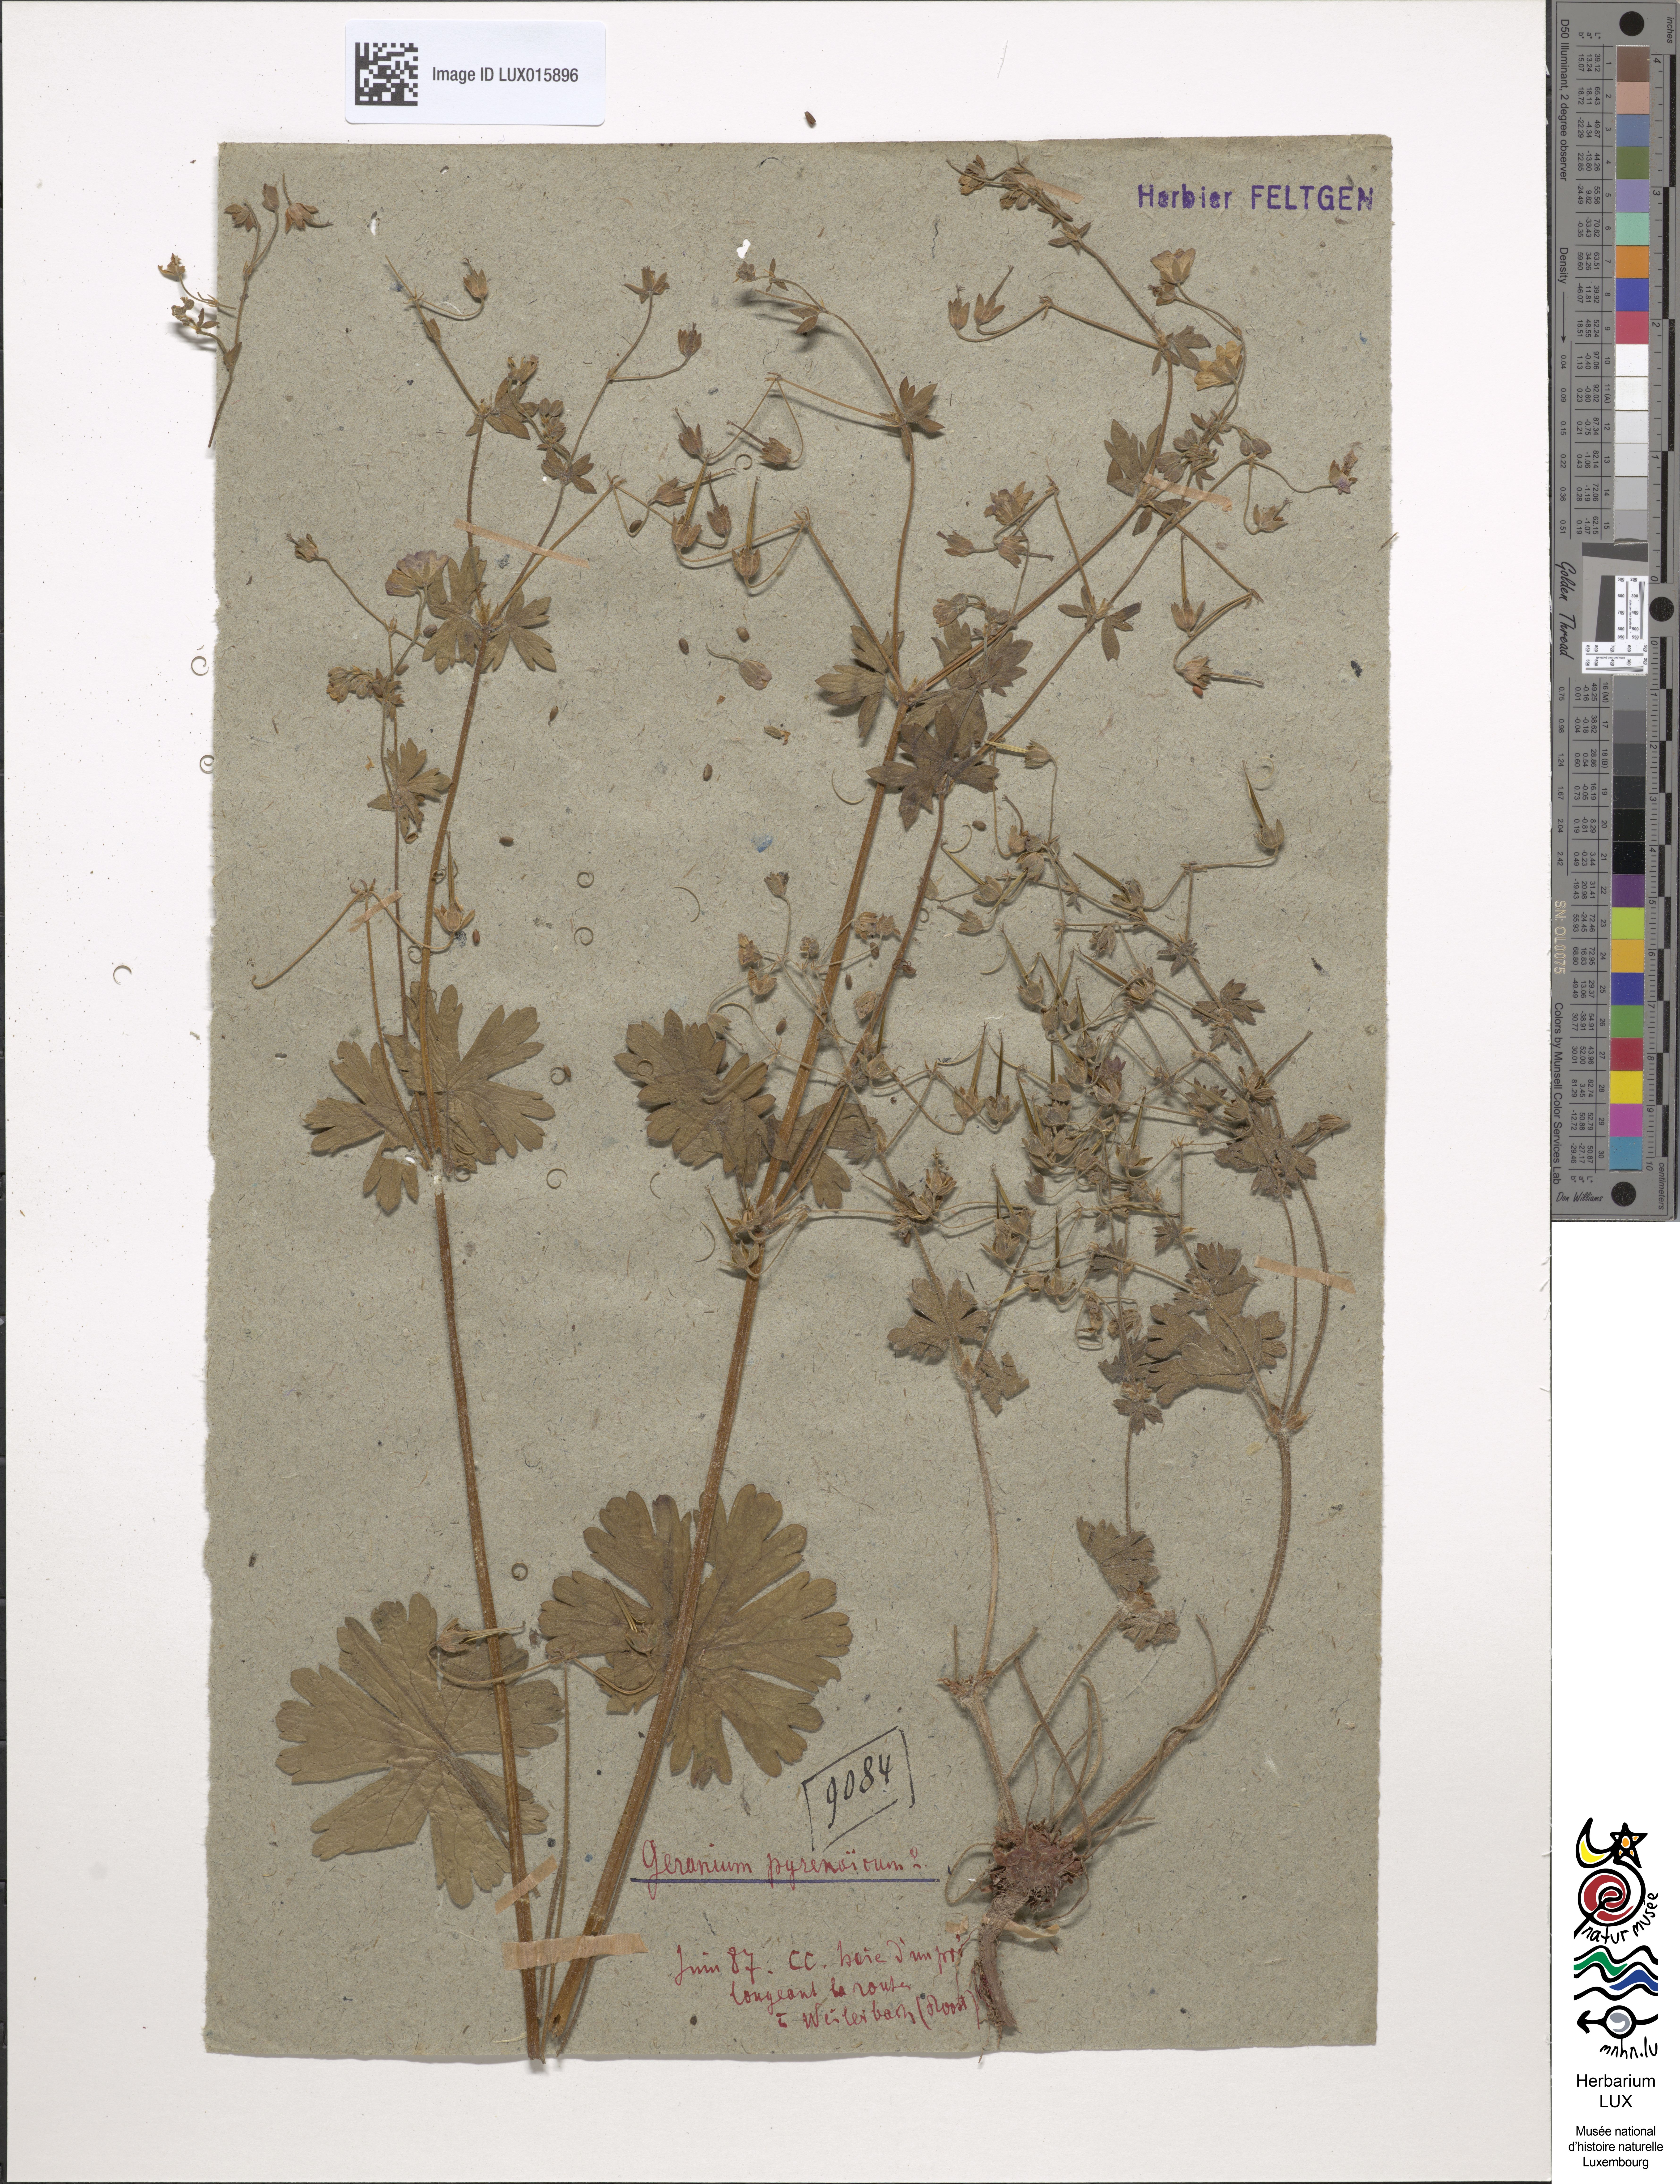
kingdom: Plantae
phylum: Tracheophyta
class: Magnoliopsida
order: Geraniales
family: Geraniaceae
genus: Geranium
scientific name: Geranium pyrenaicum
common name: Hedgerow crane's-bill
